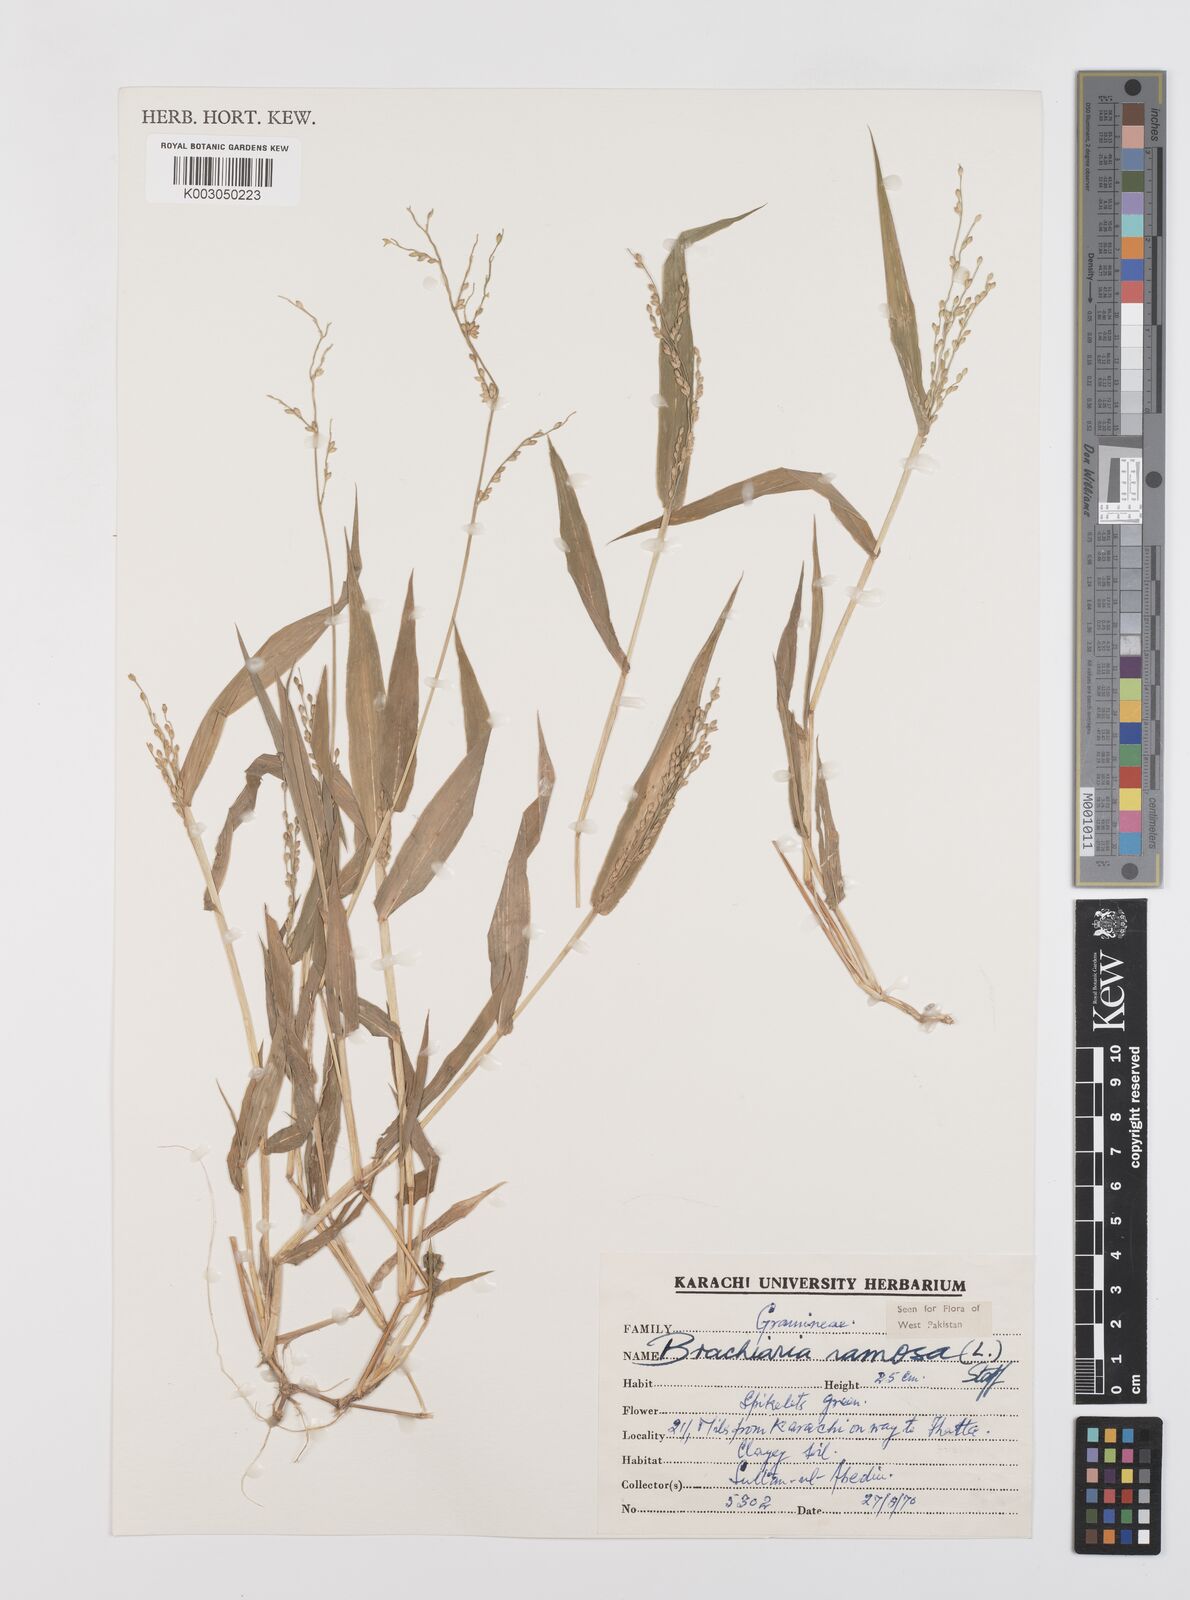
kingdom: Plantae
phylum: Tracheophyta
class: Liliopsida
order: Poales
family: Poaceae
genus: Urochloa
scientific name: Urochloa ramosa
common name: Browntop millet
